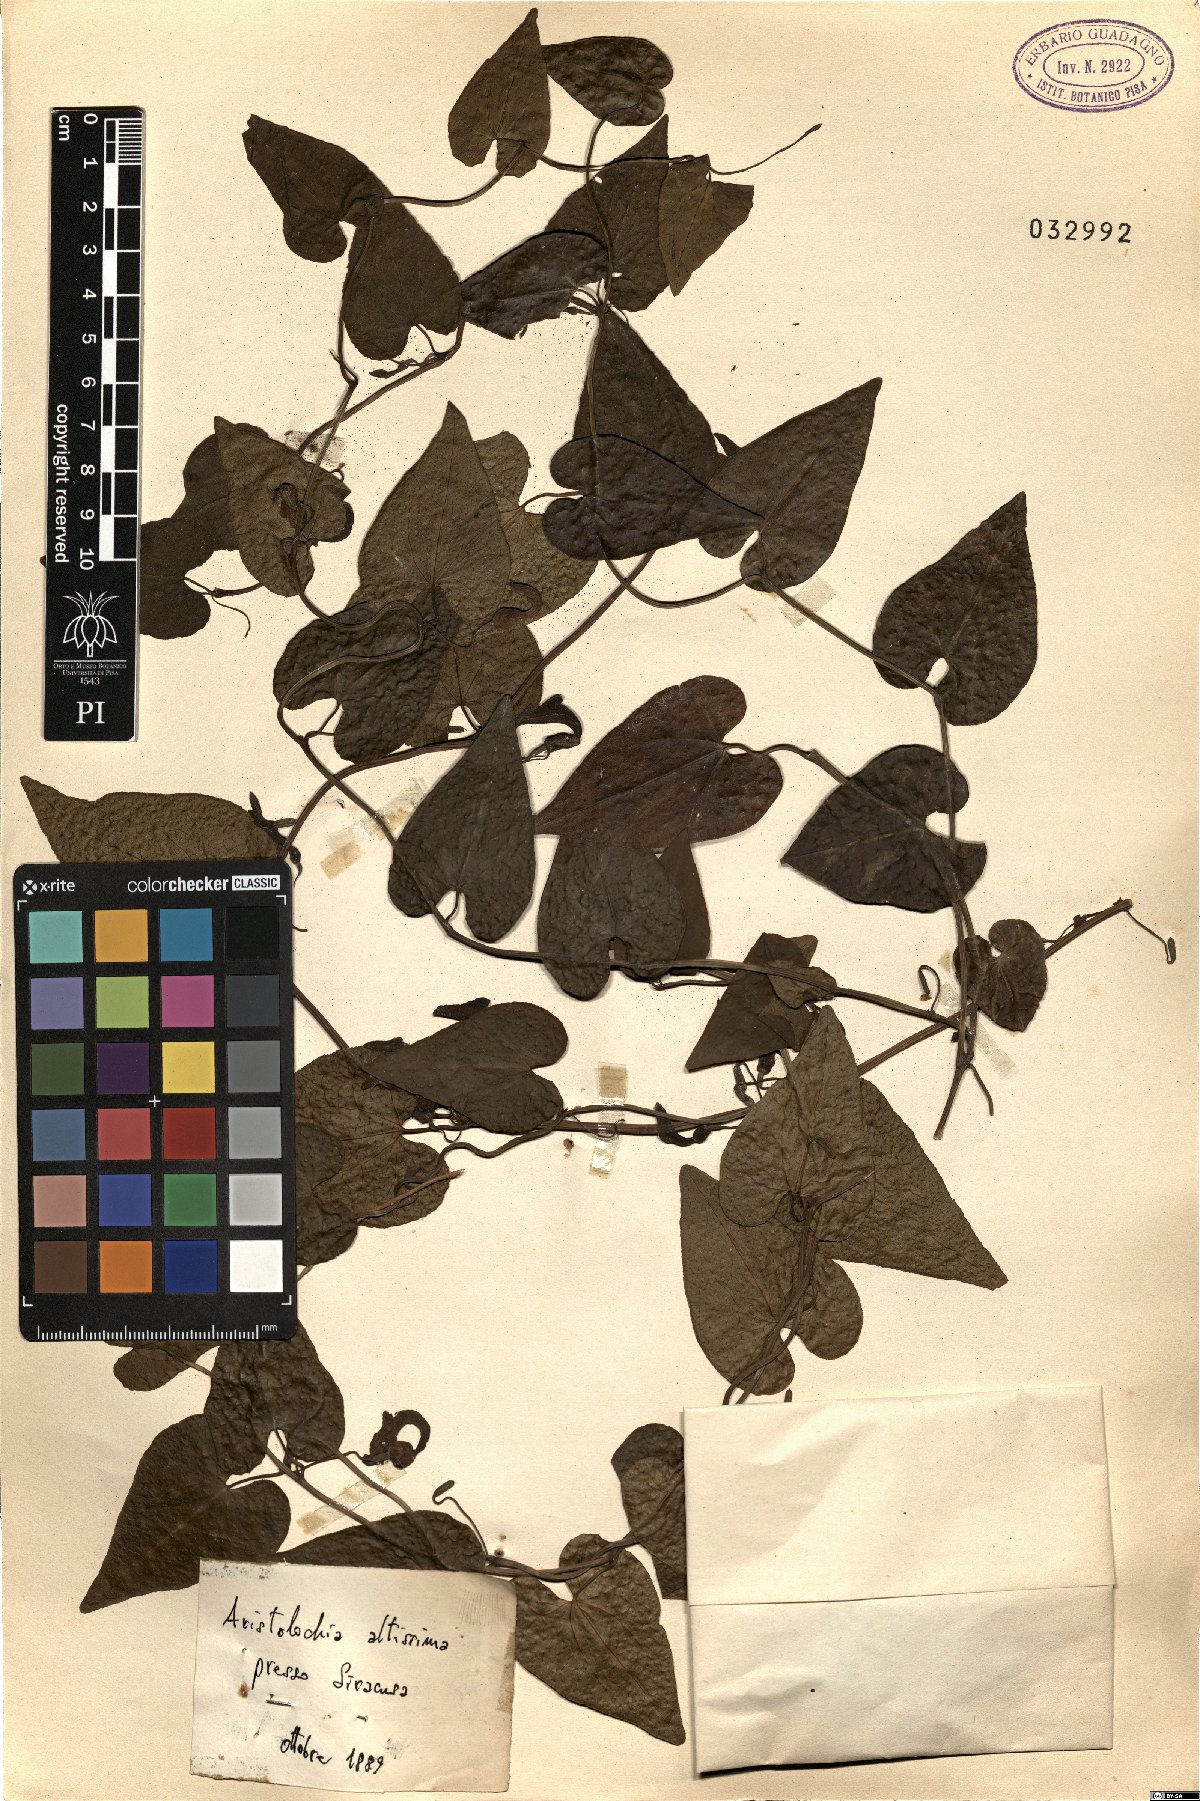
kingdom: Plantae
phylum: Tracheophyta
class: Magnoliopsida
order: Piperales
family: Aristolochiaceae
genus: Aristolochia
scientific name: Aristolochia sempervirens
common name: Long birthwort
